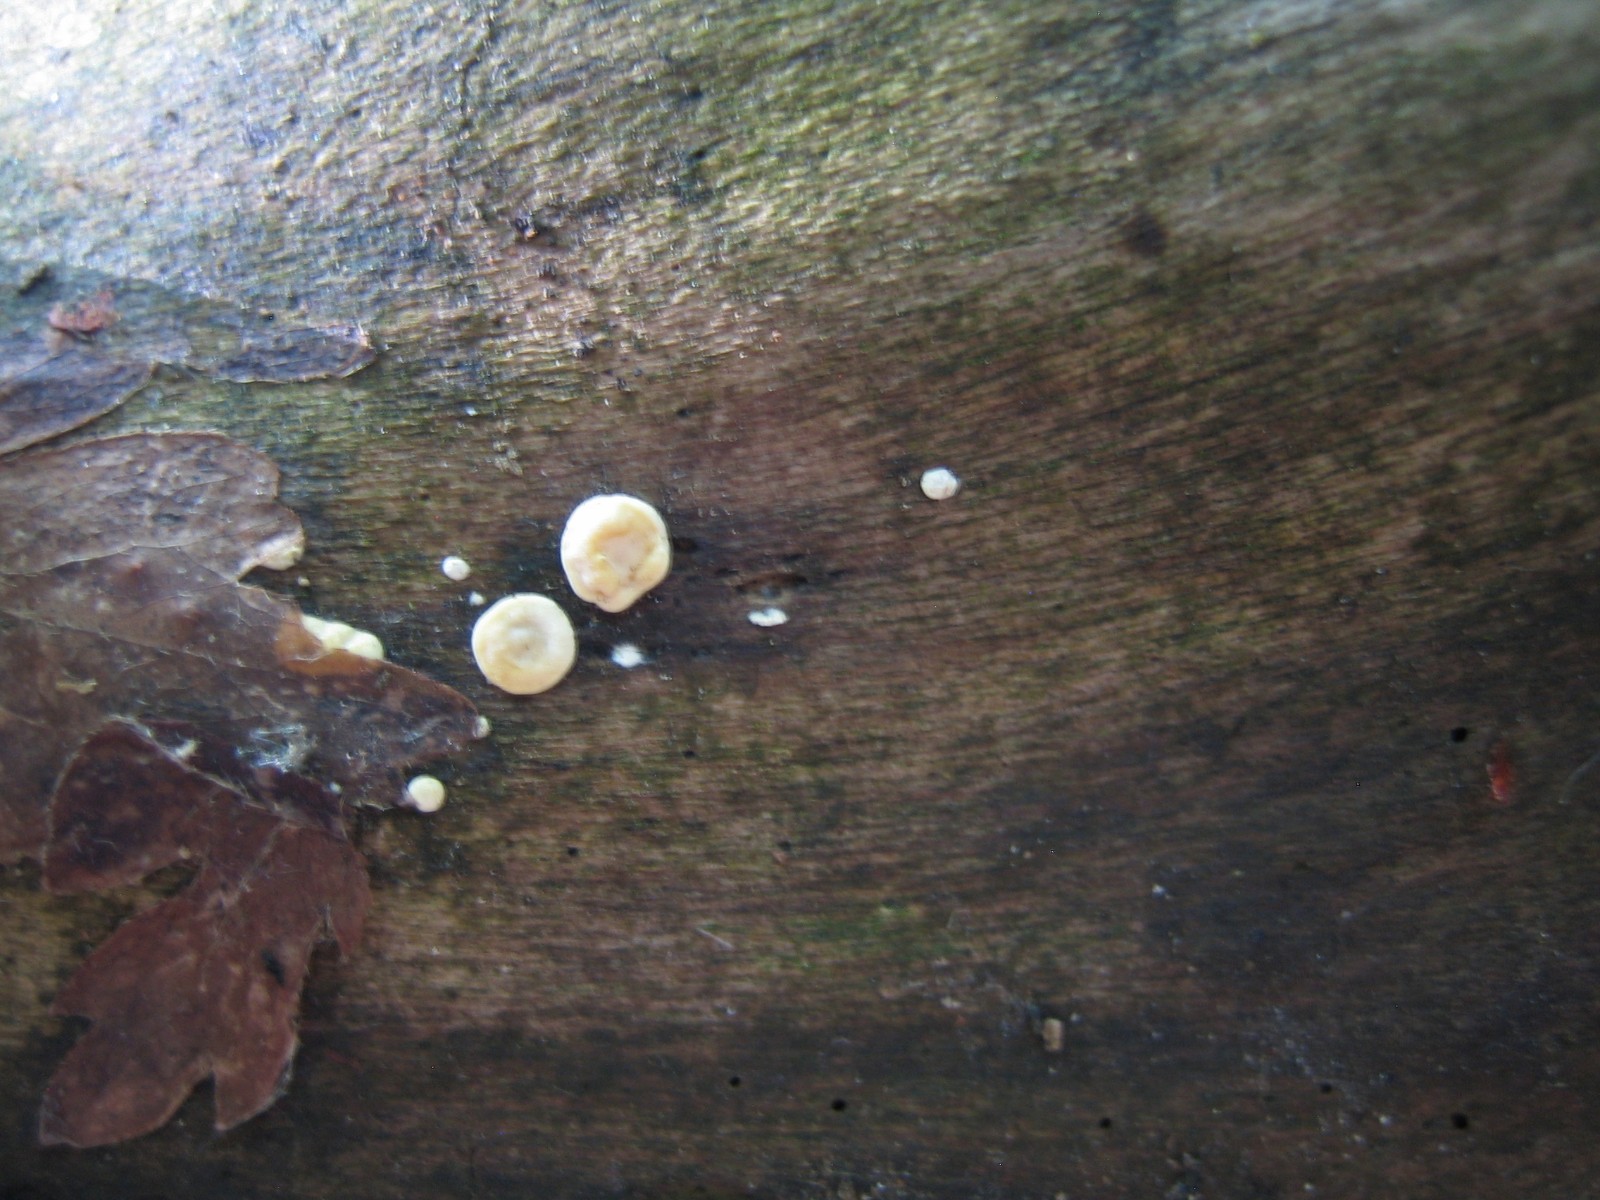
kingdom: Fungi
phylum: Ascomycota
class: Sordariomycetes
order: Hypocreales
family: Hypocreaceae
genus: Trichoderma
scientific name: Trichoderma
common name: kødkerne
